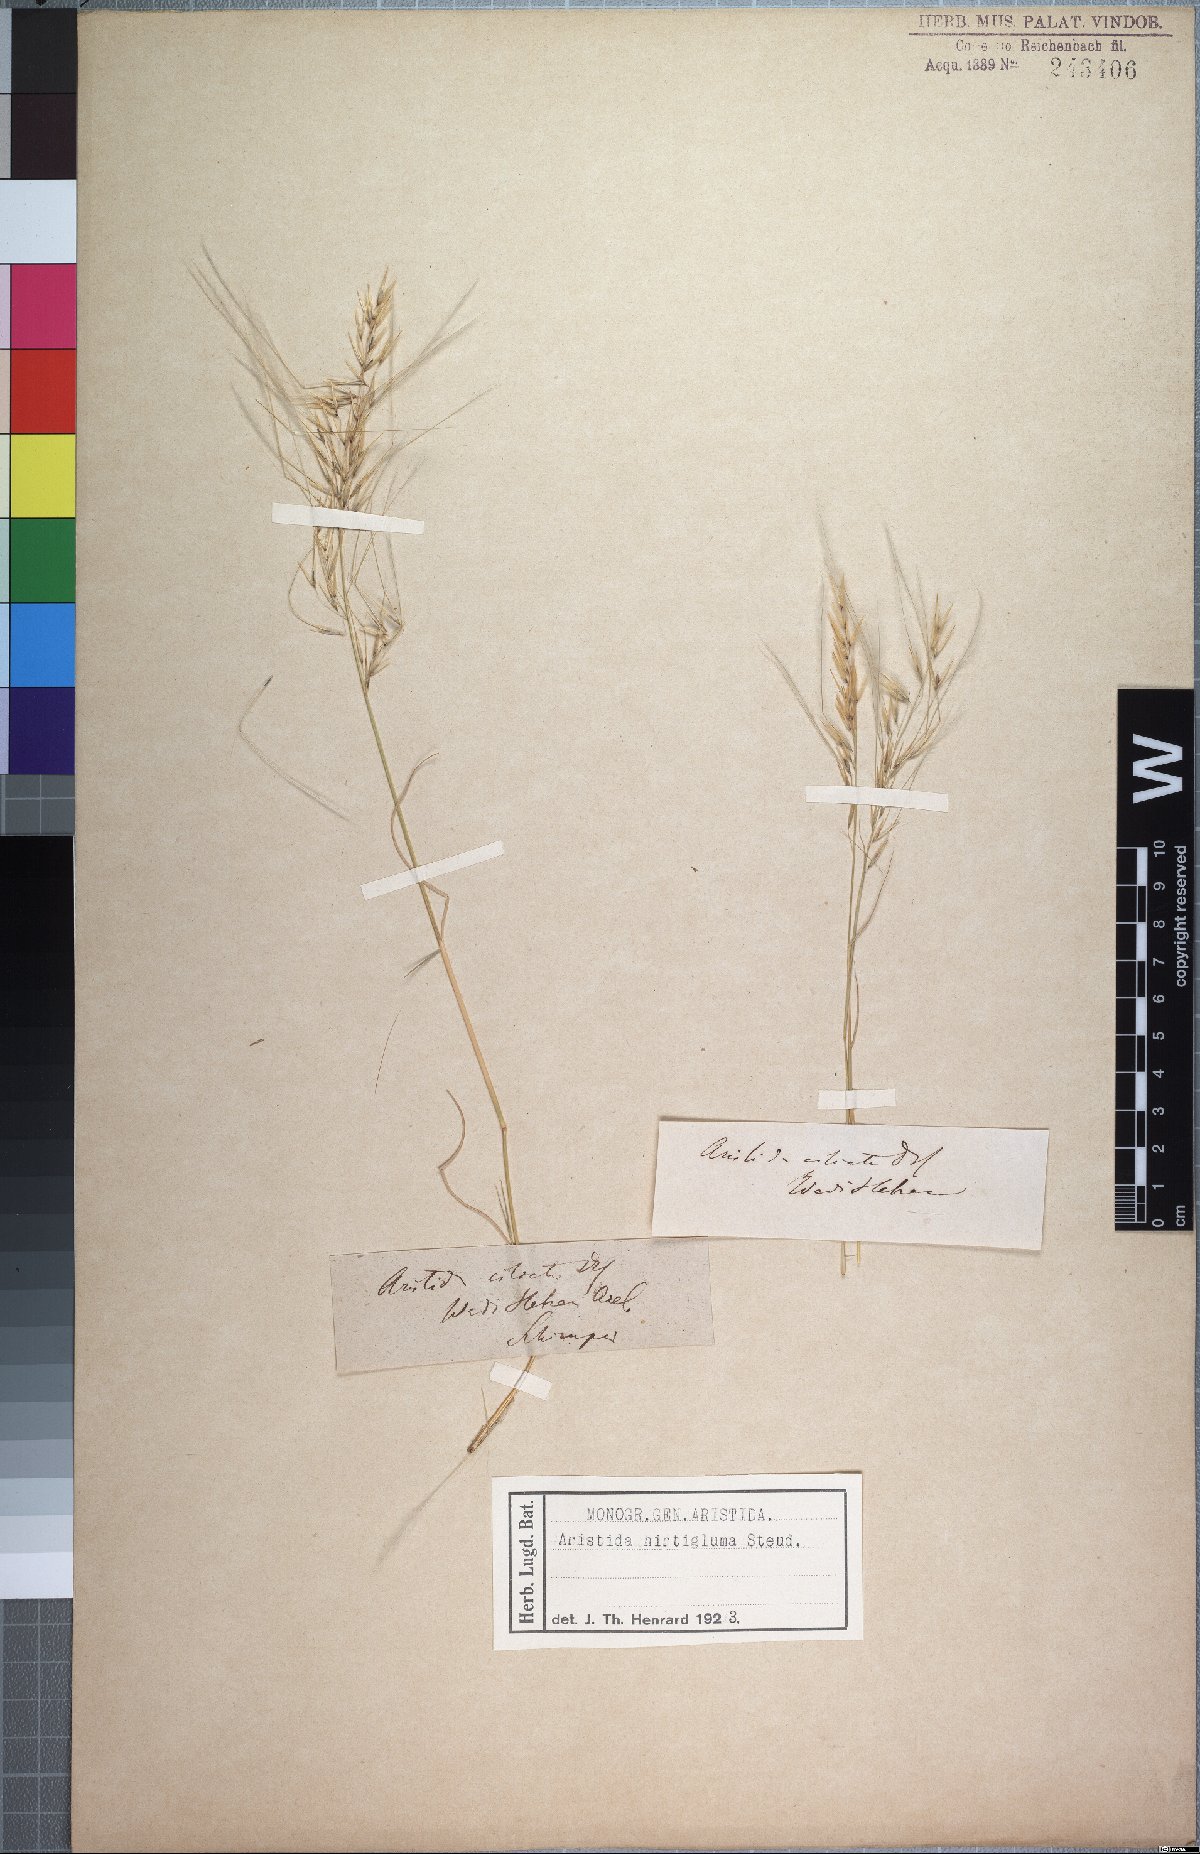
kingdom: Plantae
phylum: Tracheophyta
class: Liliopsida
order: Poales
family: Poaceae
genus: Stipagrostis
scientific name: Stipagrostis hirtigluma
